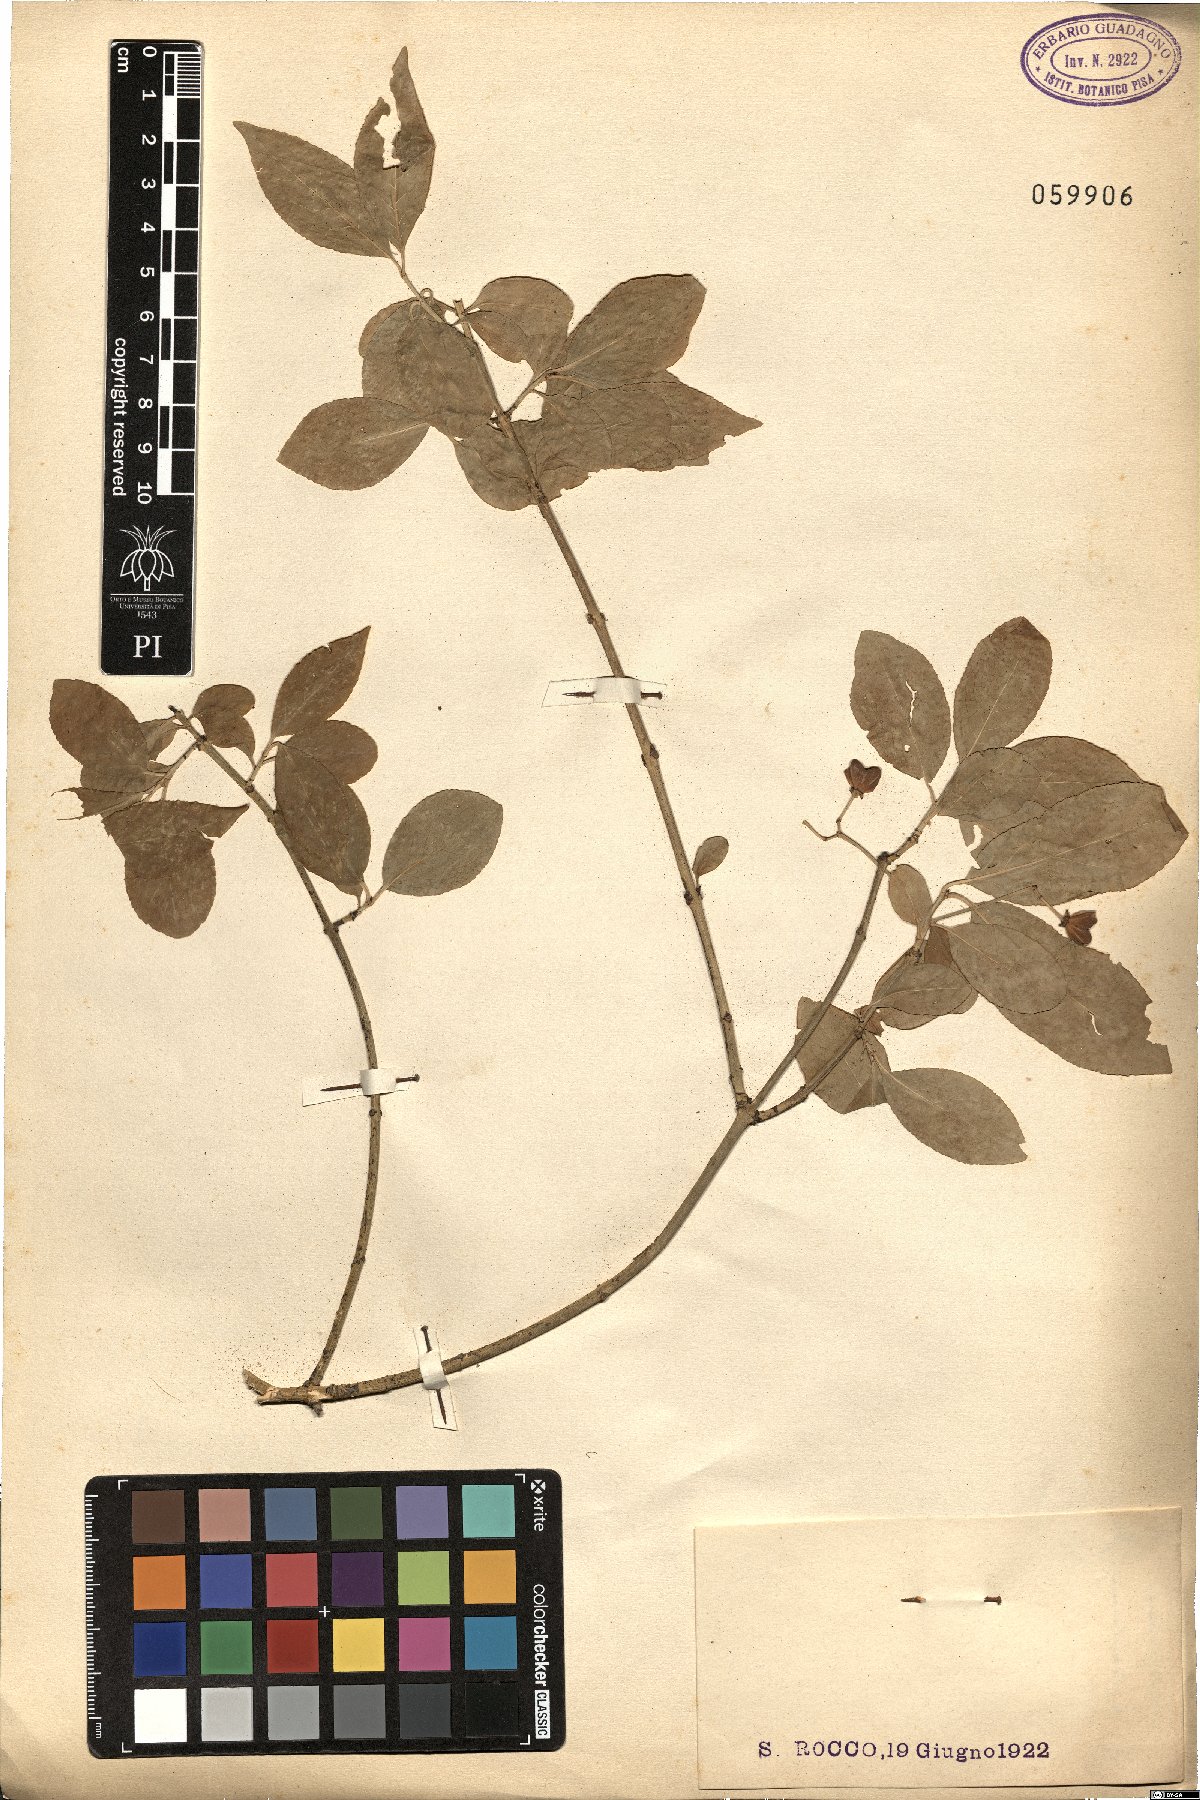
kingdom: Plantae
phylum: Tracheophyta
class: Magnoliopsida
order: Celastrales
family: Celastraceae
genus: Euonymus
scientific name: Euonymus europaeus
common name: Spindle
